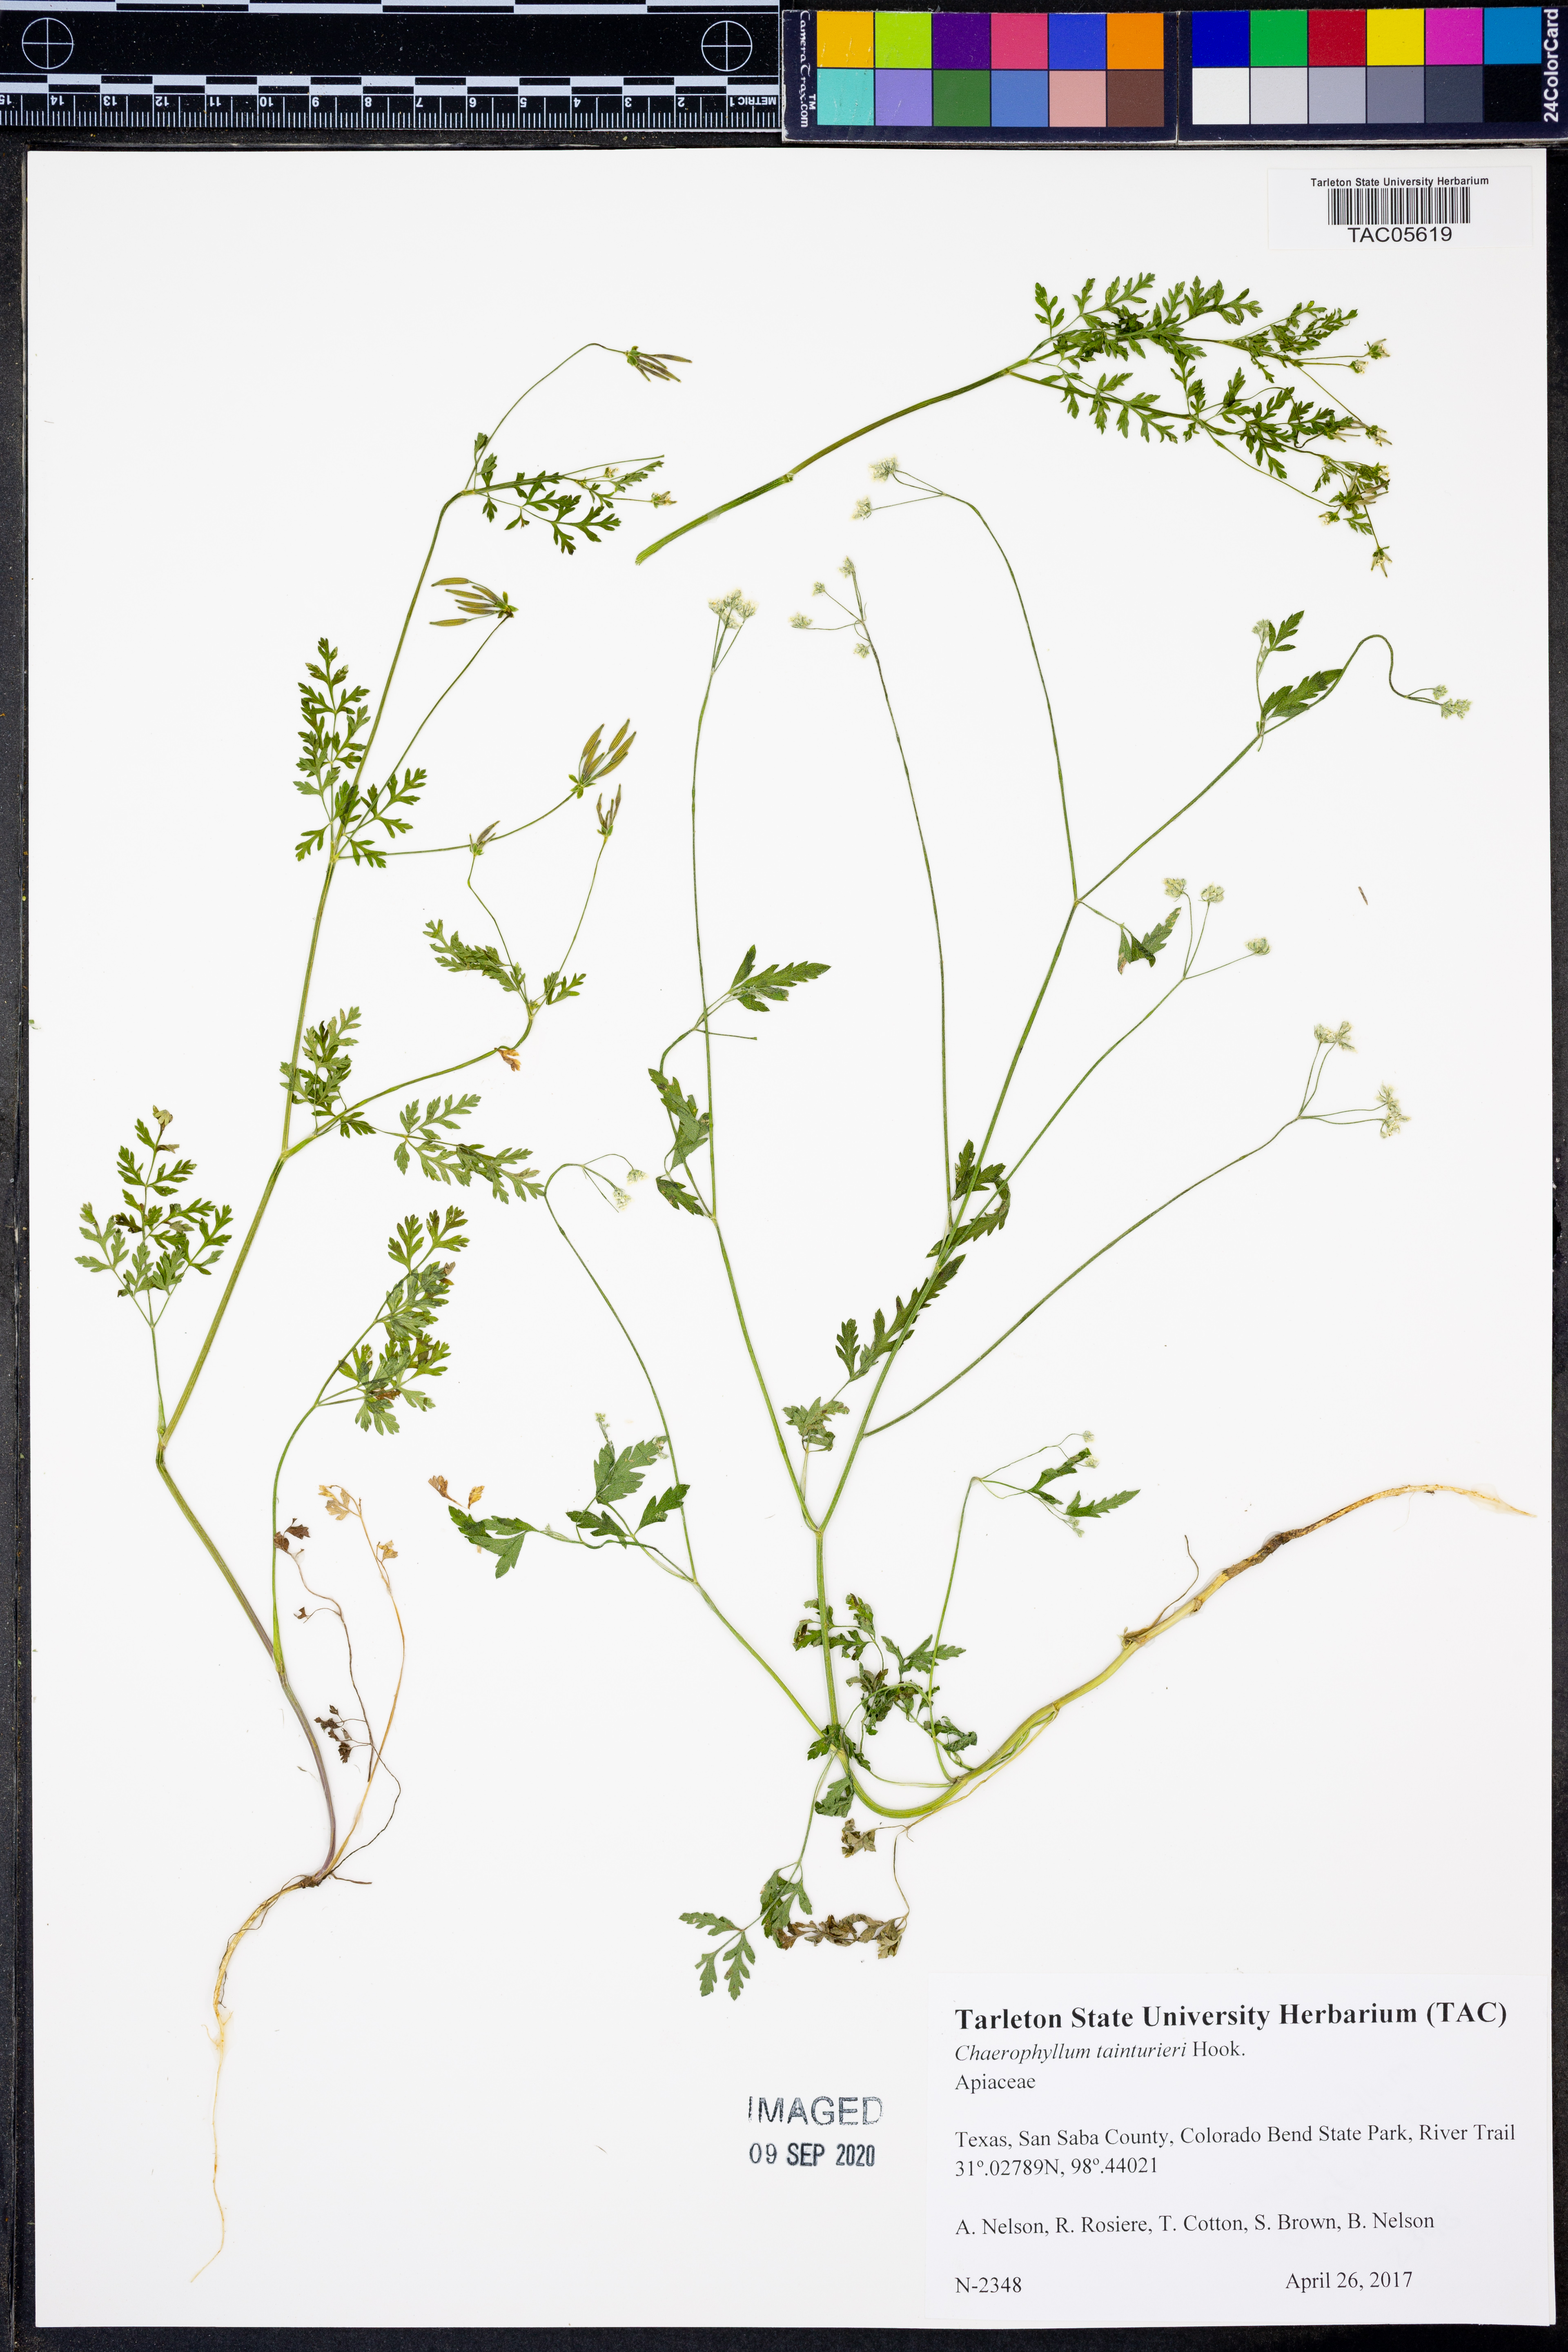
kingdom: Plantae
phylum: Tracheophyta
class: Magnoliopsida
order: Apiales
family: Apiaceae
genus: Chaerophyllum
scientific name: Chaerophyllum tainturieri
